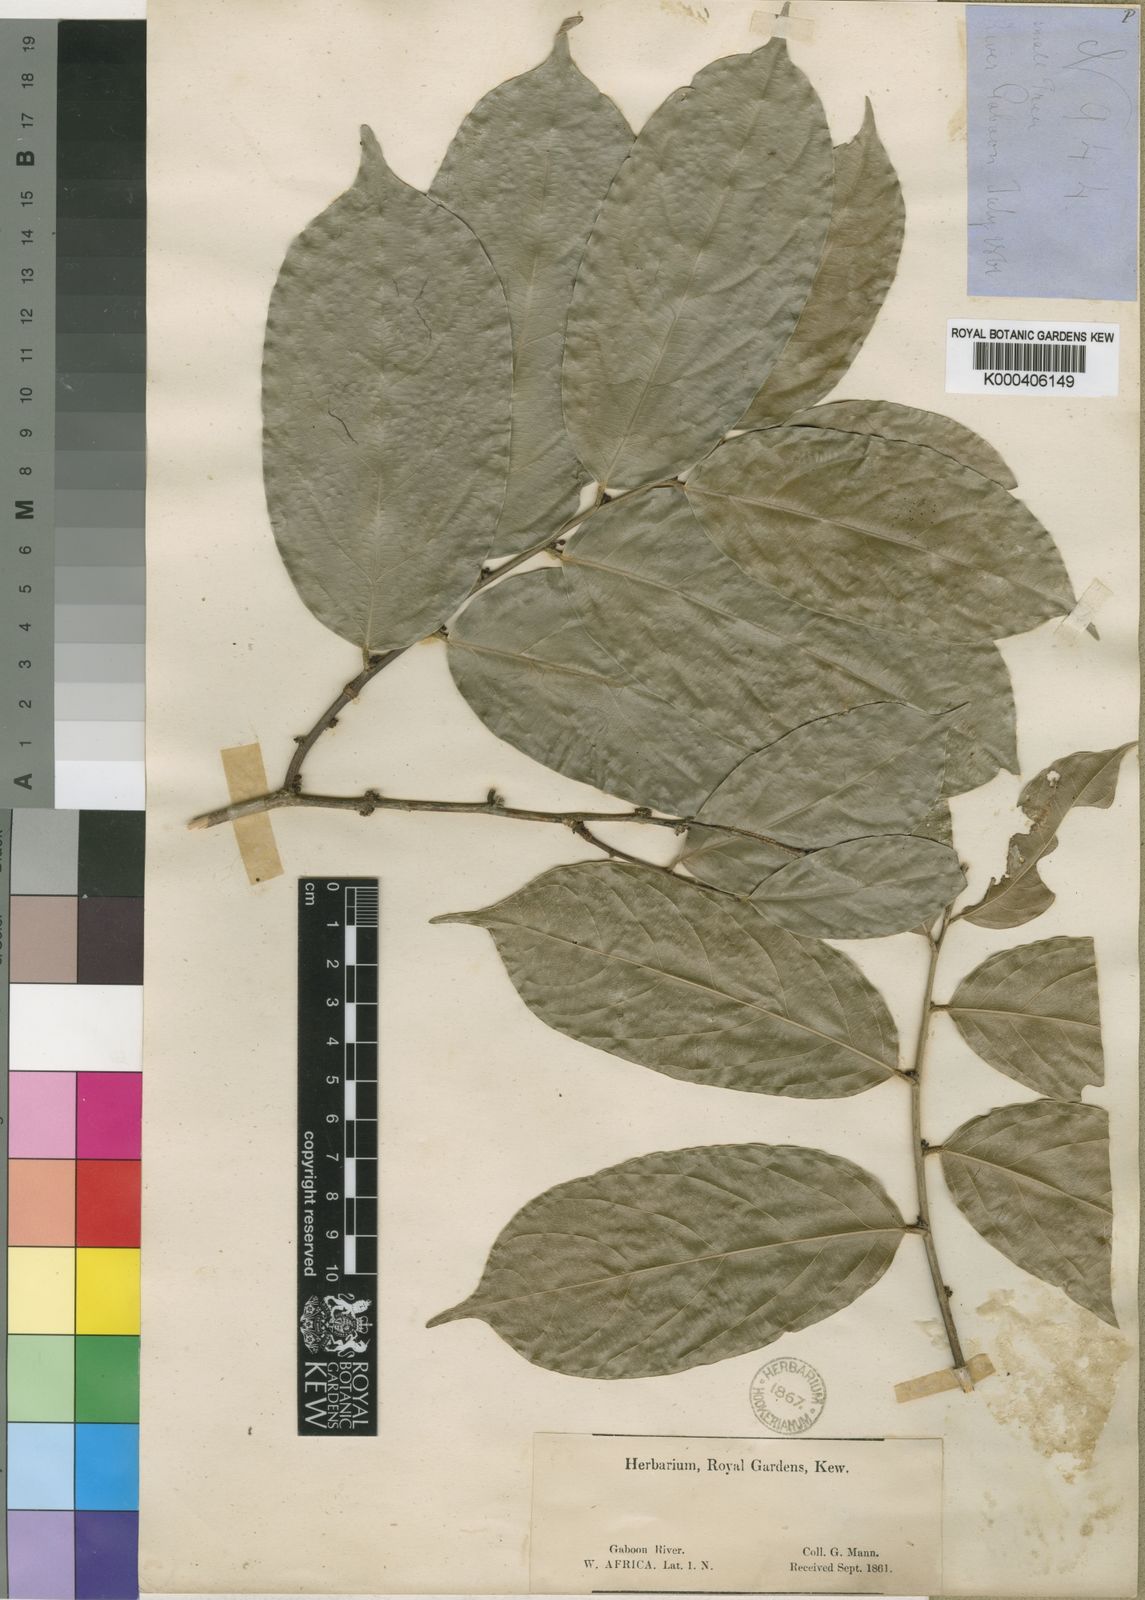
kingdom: Plantae
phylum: Tracheophyta
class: Magnoliopsida
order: Malpighiales
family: Phyllanthaceae
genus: Pentabrachion
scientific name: Pentabrachion
